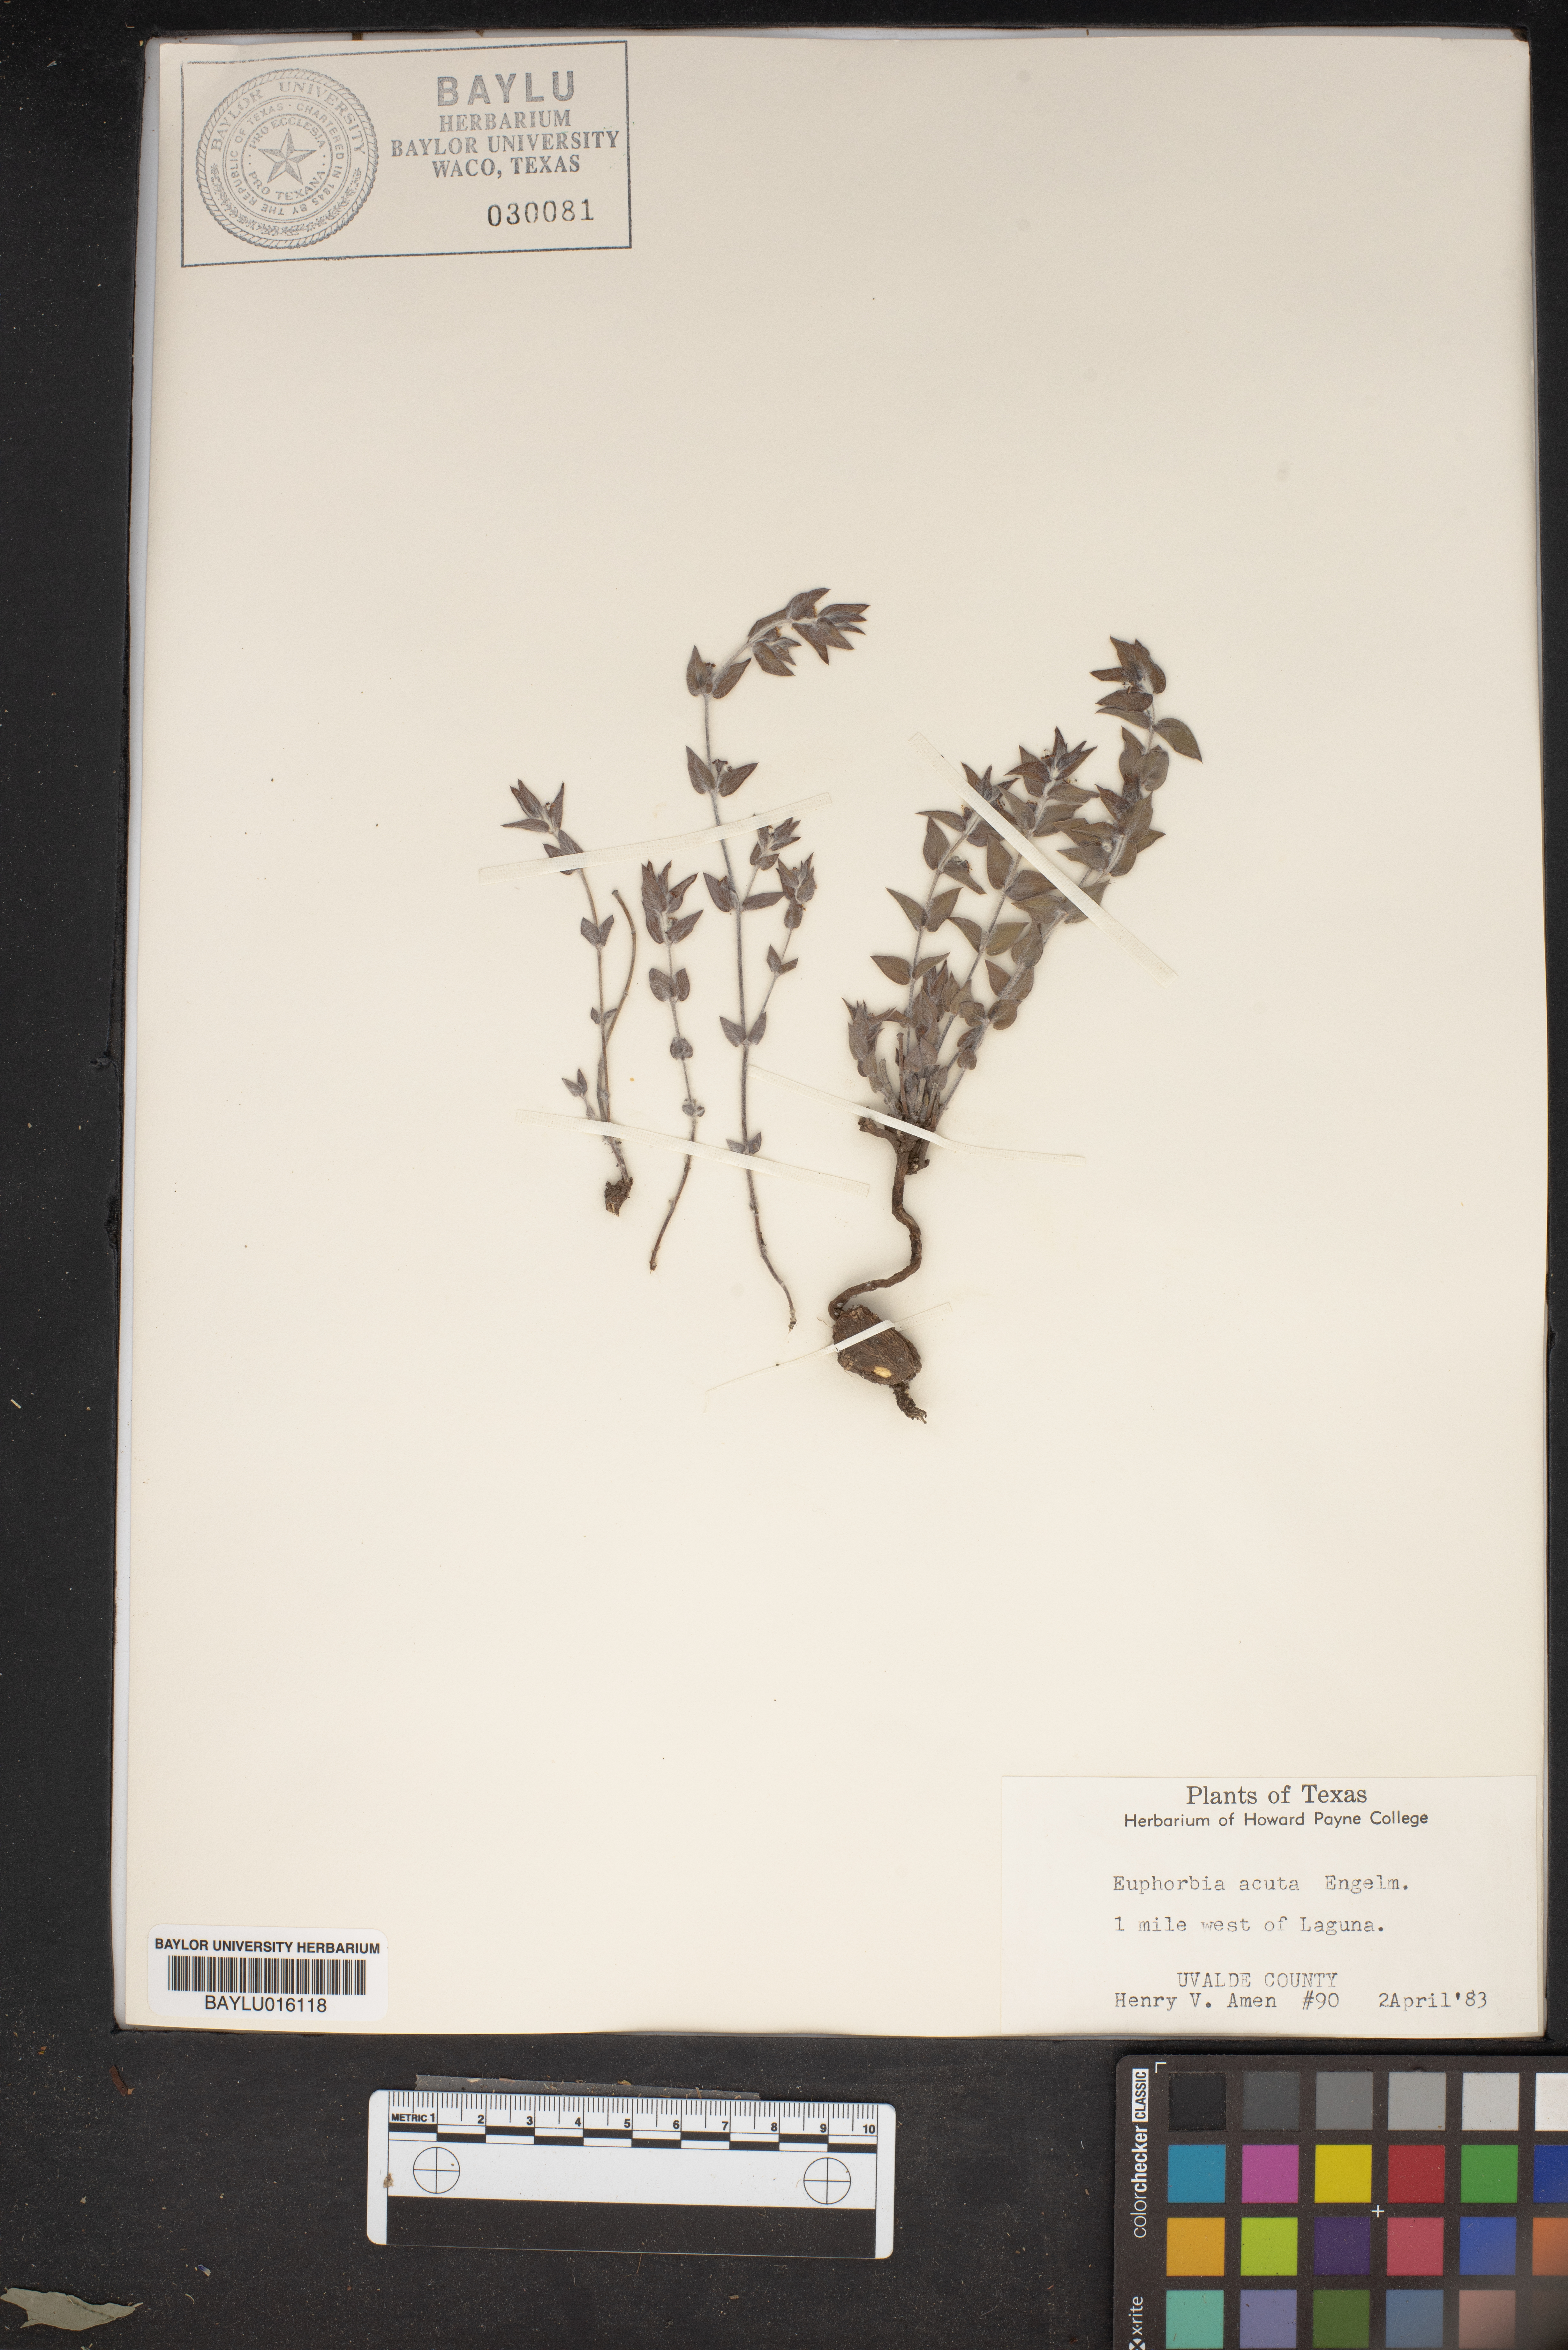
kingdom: Plantae
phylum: Tracheophyta
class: Magnoliopsida
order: Malpighiales
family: Euphorbiaceae
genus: Euphorbia
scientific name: Euphorbia acuta
